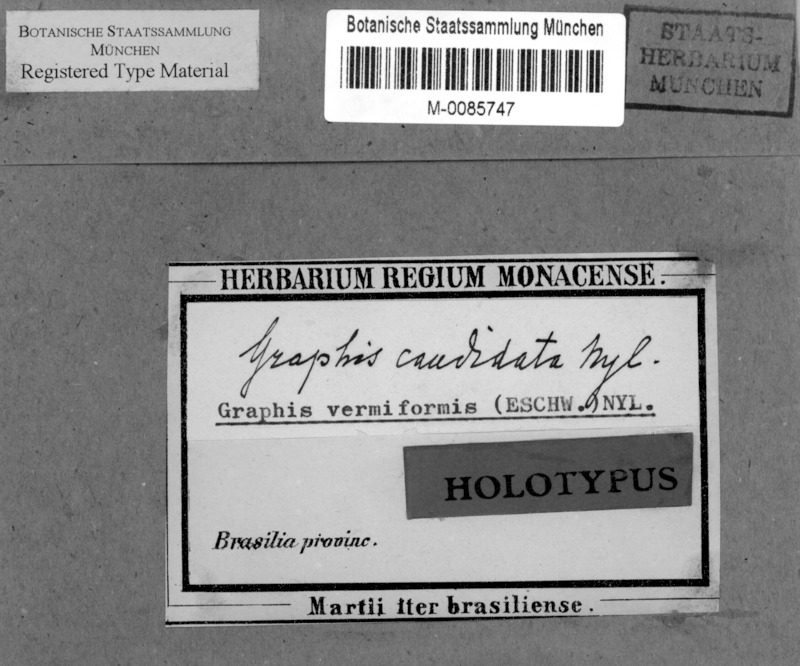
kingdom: Fungi
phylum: Ascomycota
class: Lecanoromycetes
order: Ostropales
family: Graphidaceae
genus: Graphis
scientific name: Graphis
